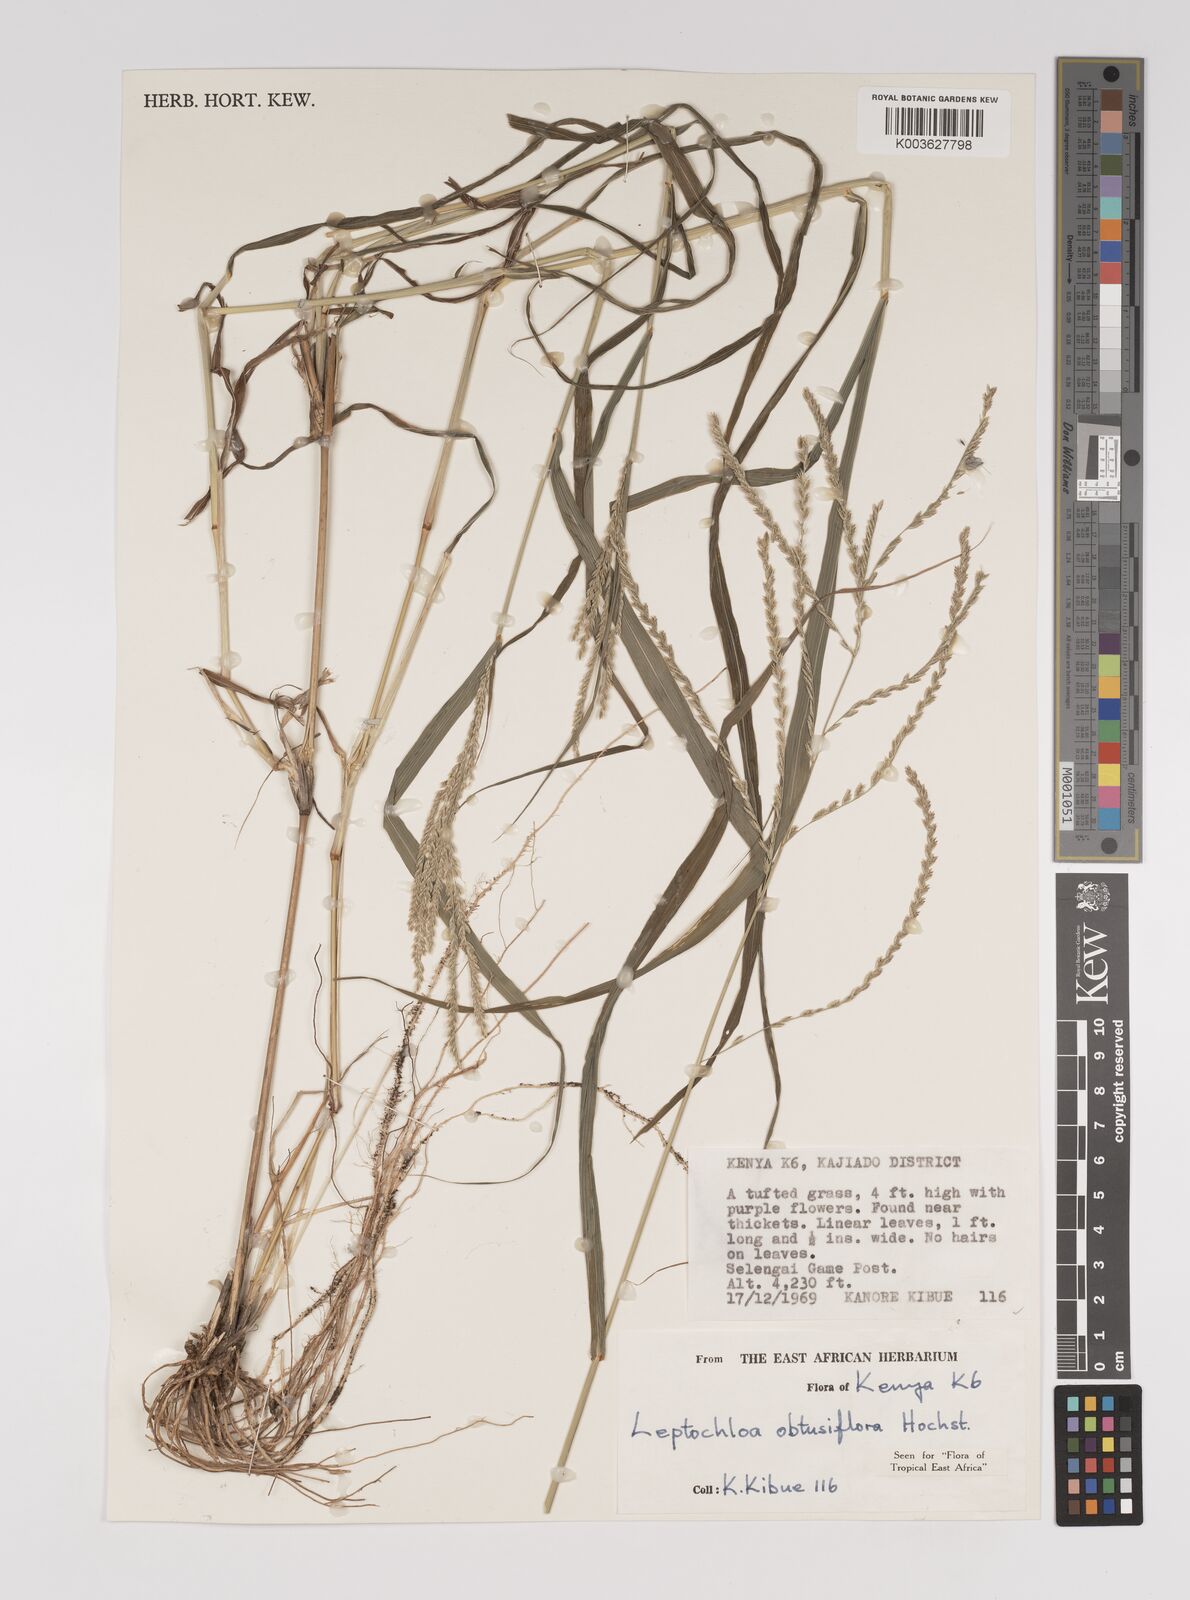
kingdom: Plantae
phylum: Tracheophyta
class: Liliopsida
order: Poales
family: Poaceae
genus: Disakisperma
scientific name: Disakisperma obtusiflorum
